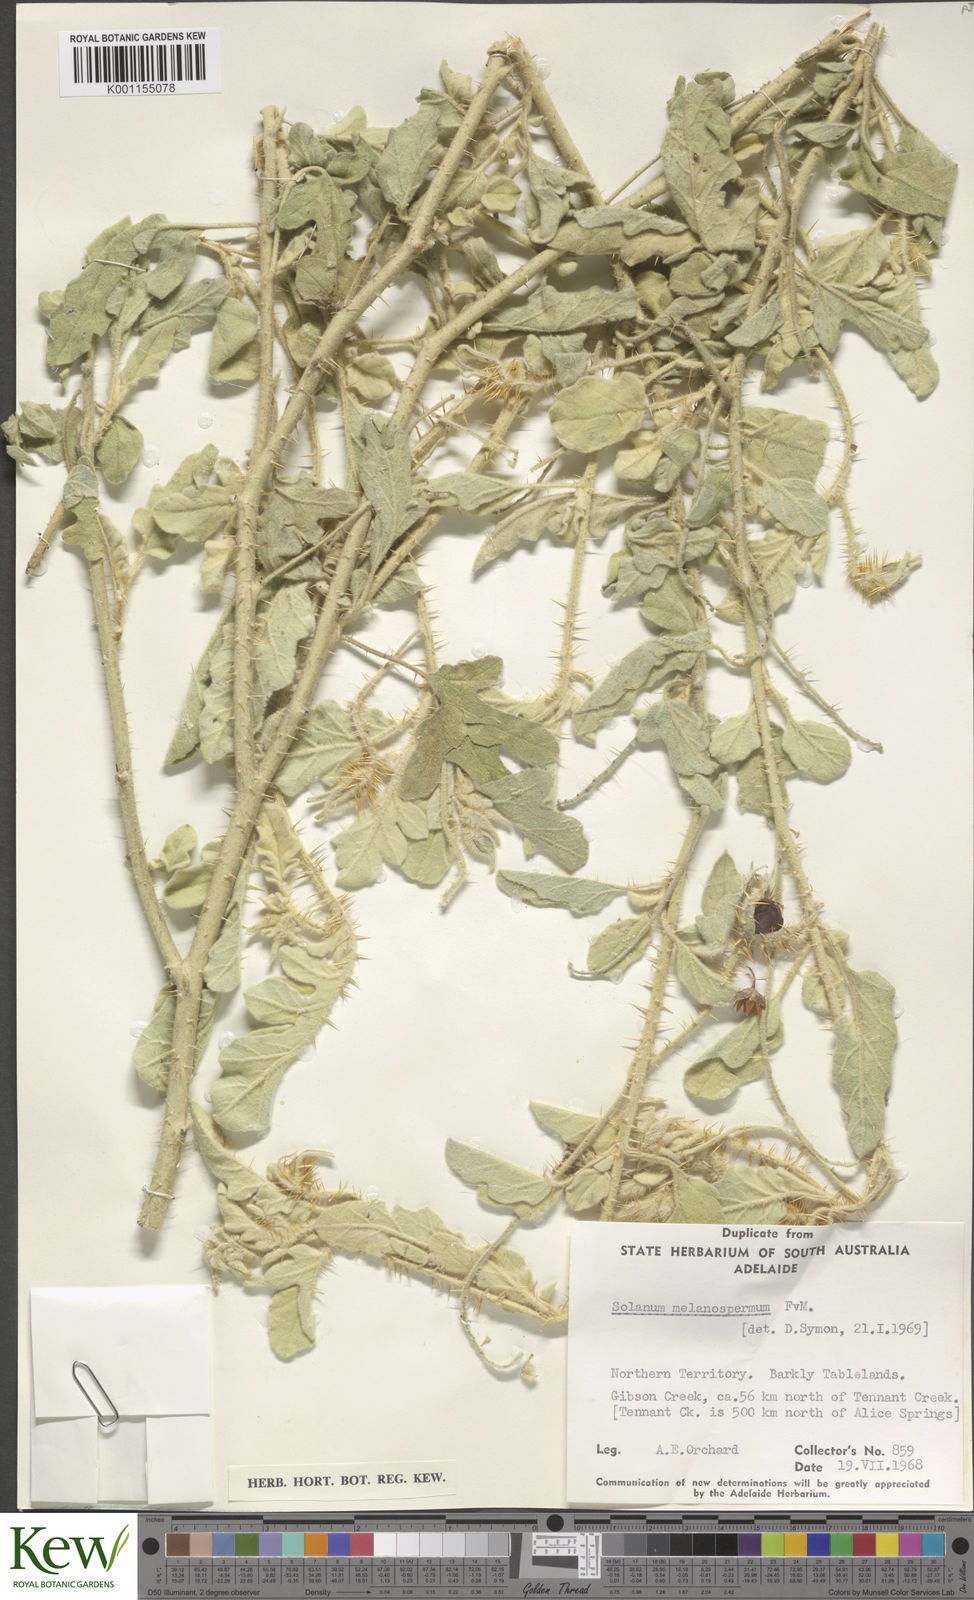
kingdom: Plantae
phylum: Tracheophyta
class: Magnoliopsida
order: Solanales
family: Solanaceae
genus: Solanum
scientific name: Solanum chippendalei
